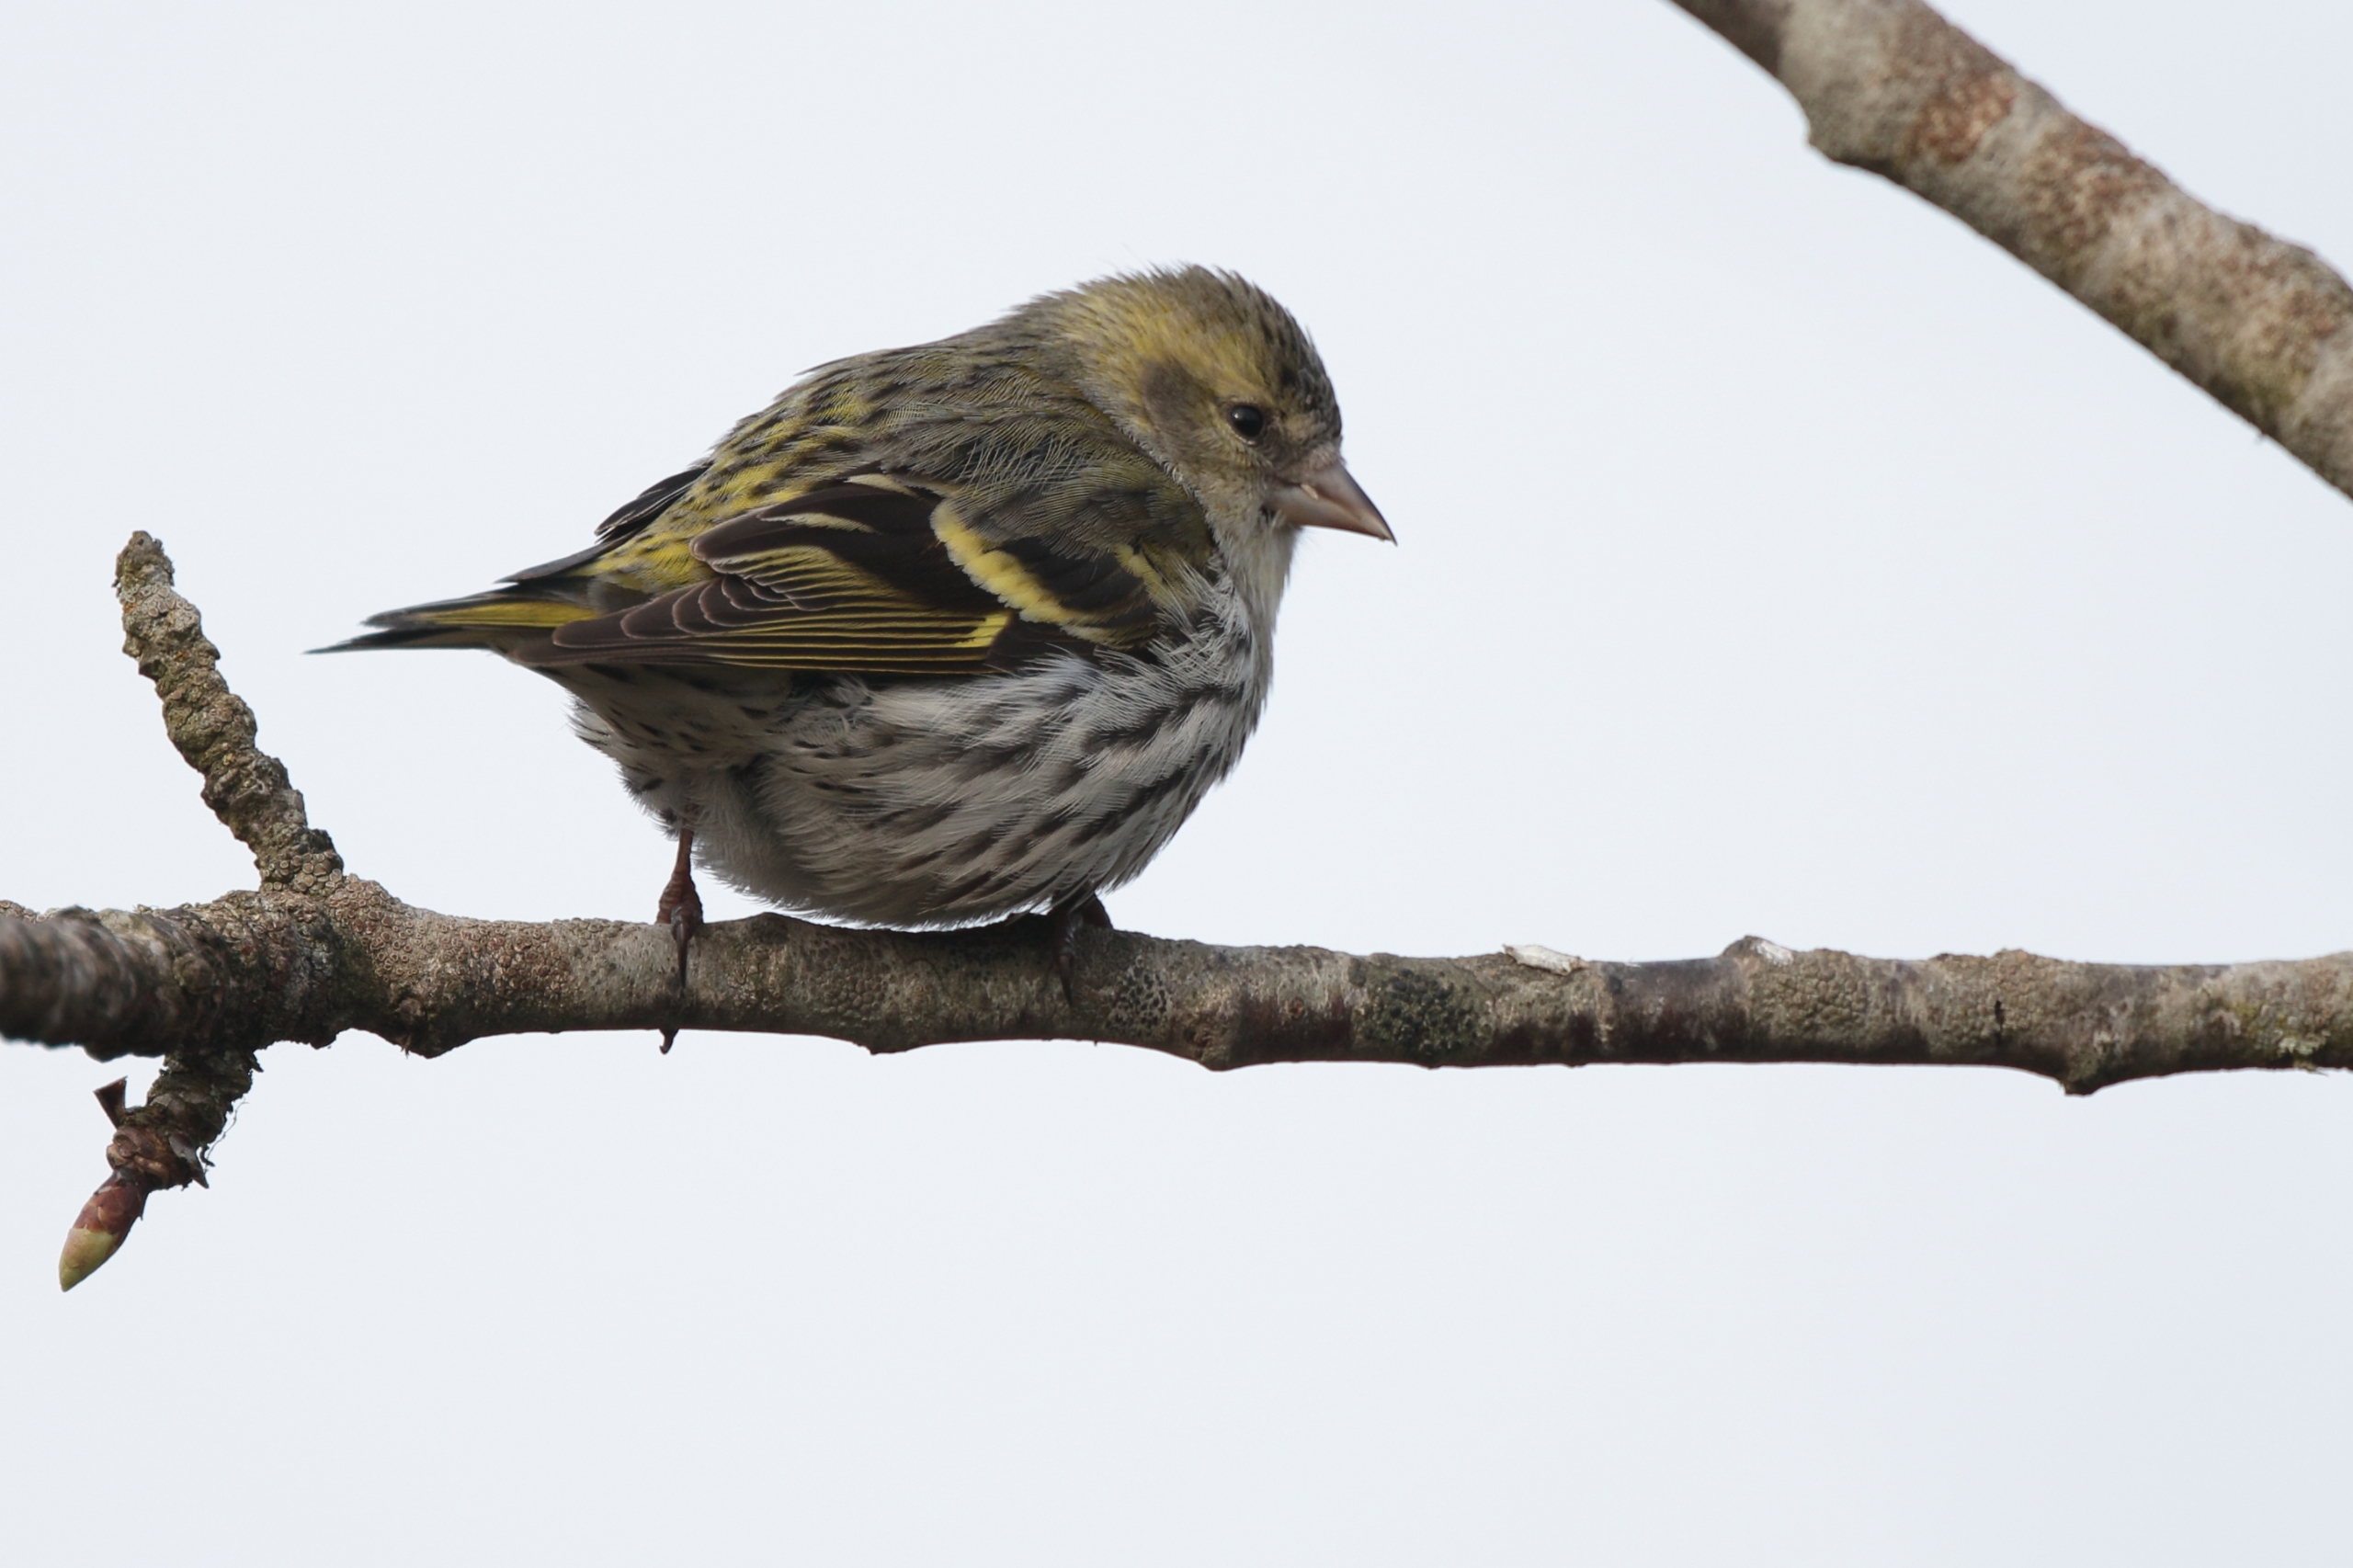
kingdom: Animalia
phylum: Chordata
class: Aves
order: Passeriformes
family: Fringillidae
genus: Spinus
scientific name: Spinus spinus
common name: Grønsisken
